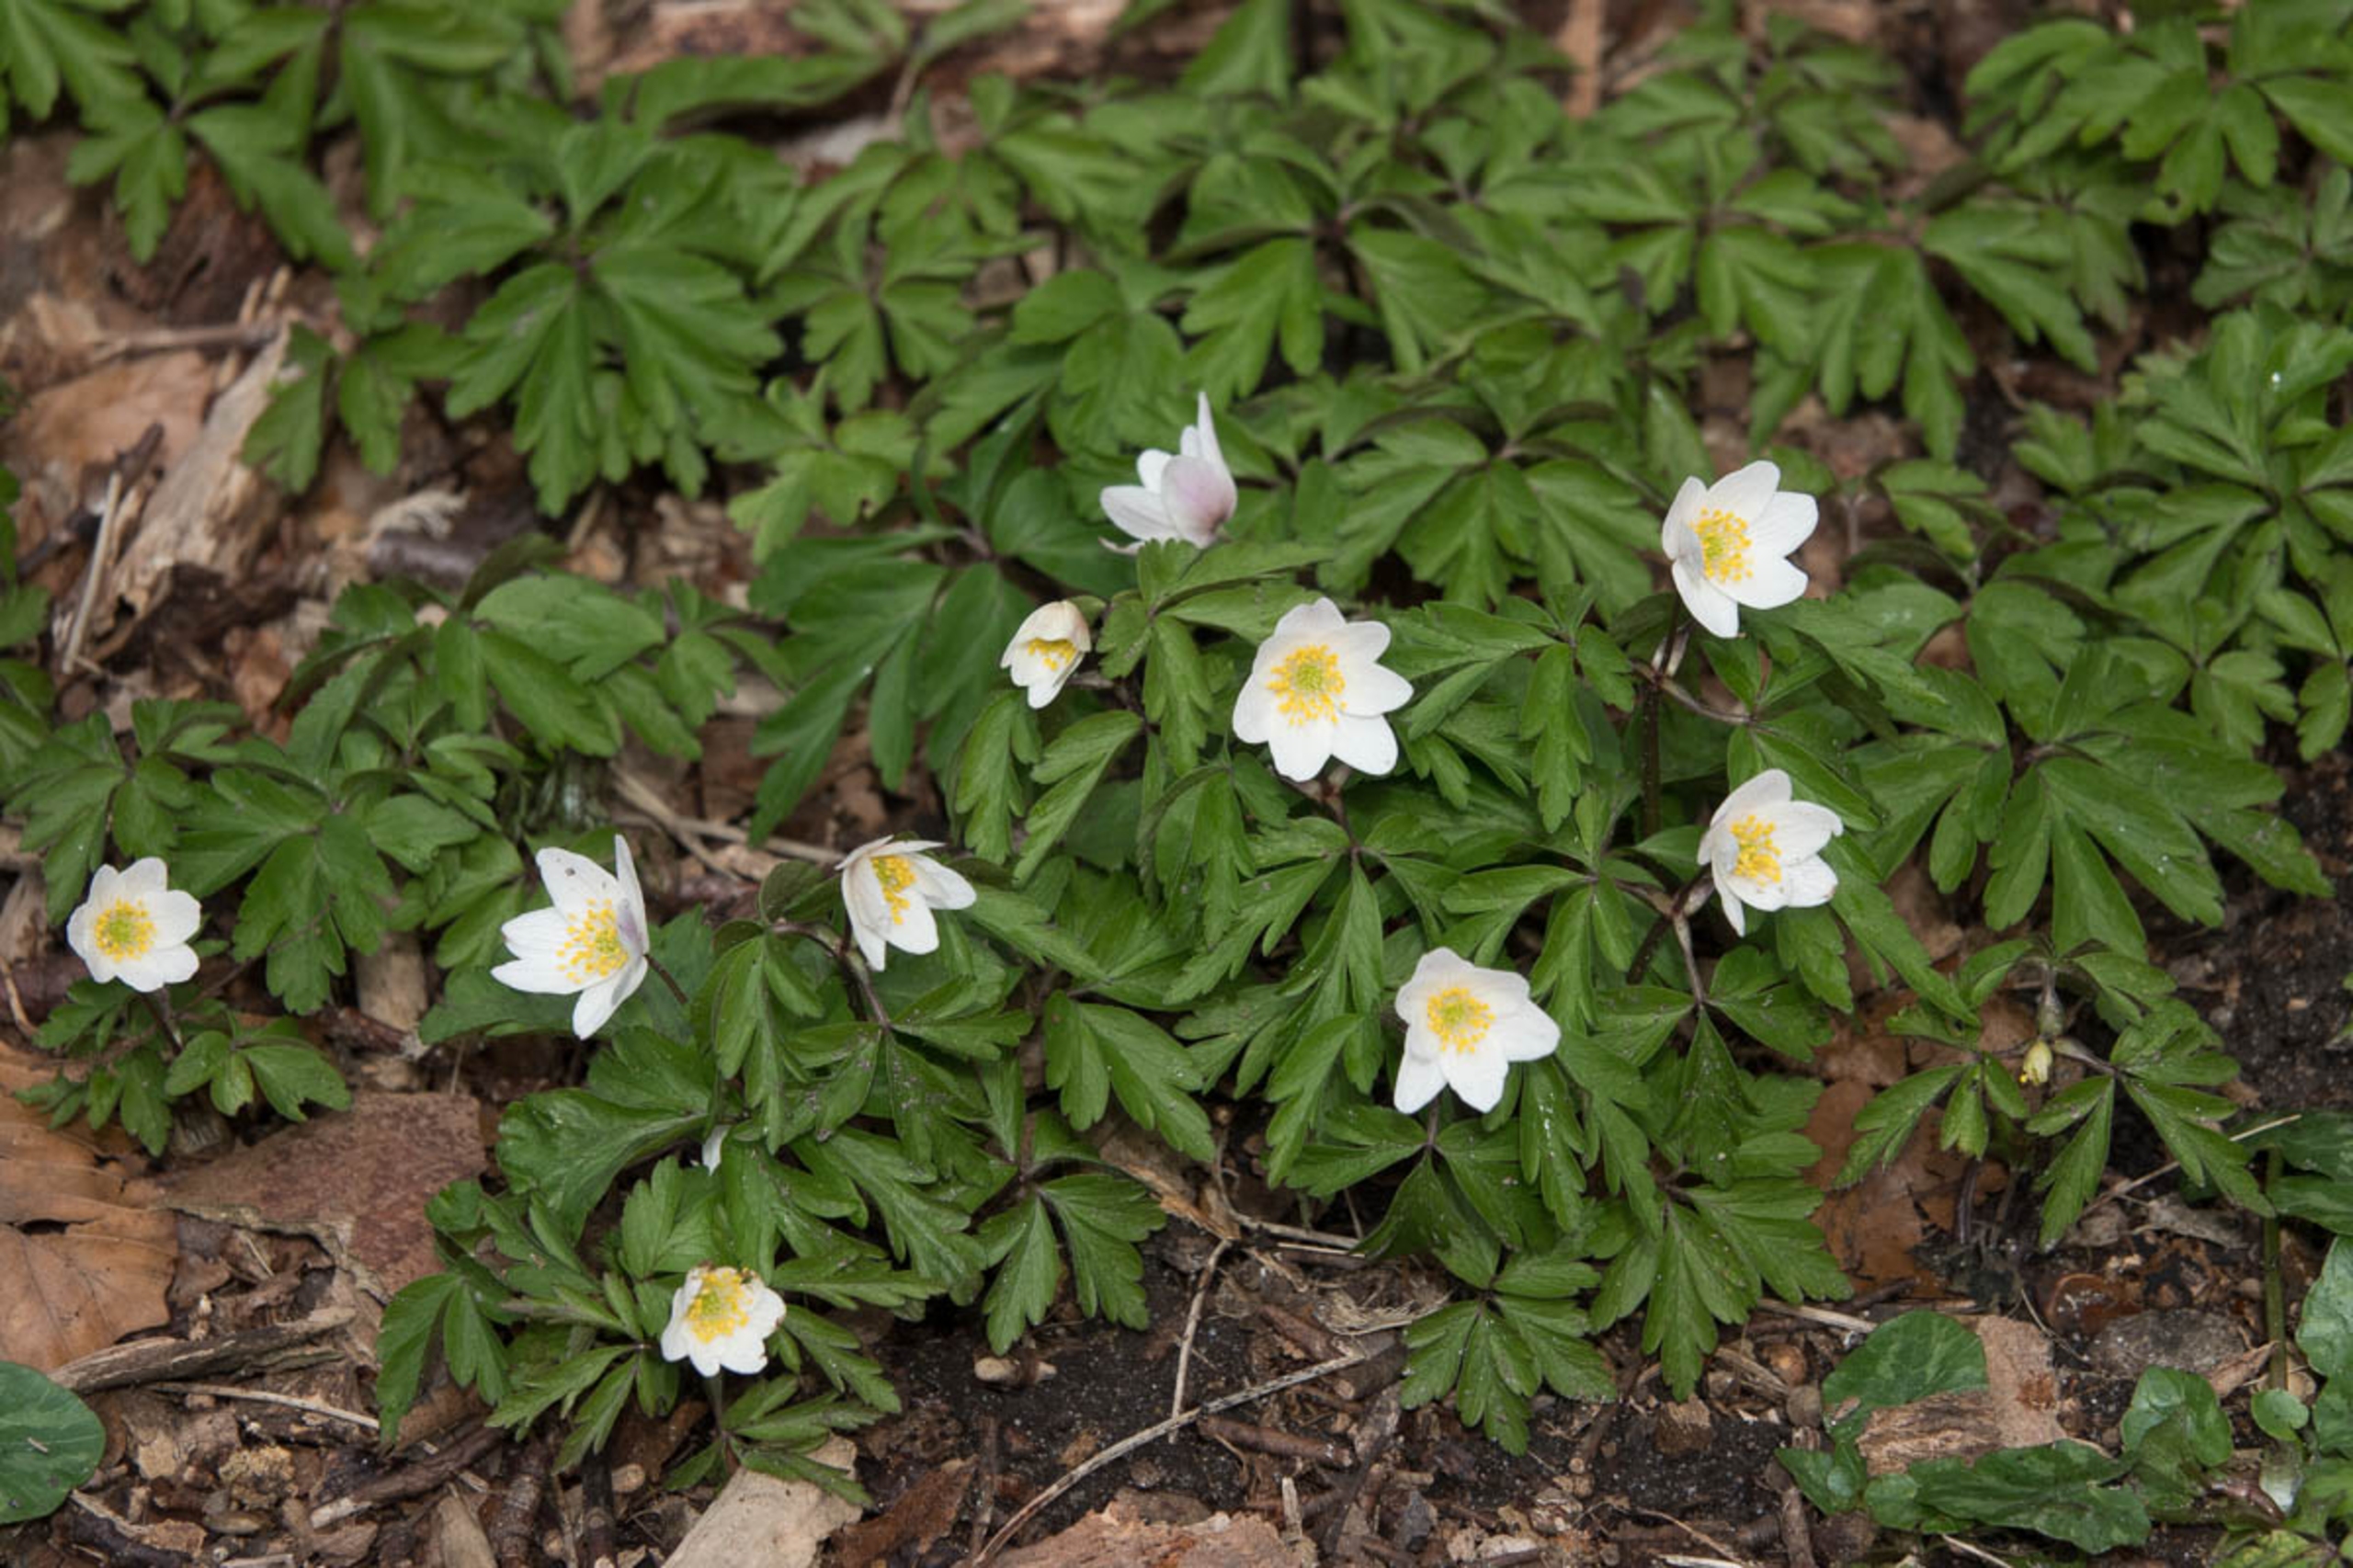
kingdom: Plantae
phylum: Tracheophyta
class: Magnoliopsida
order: Ranunculales
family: Ranunculaceae
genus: Anemone
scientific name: Anemone nemorosa
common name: Hvid anemone
